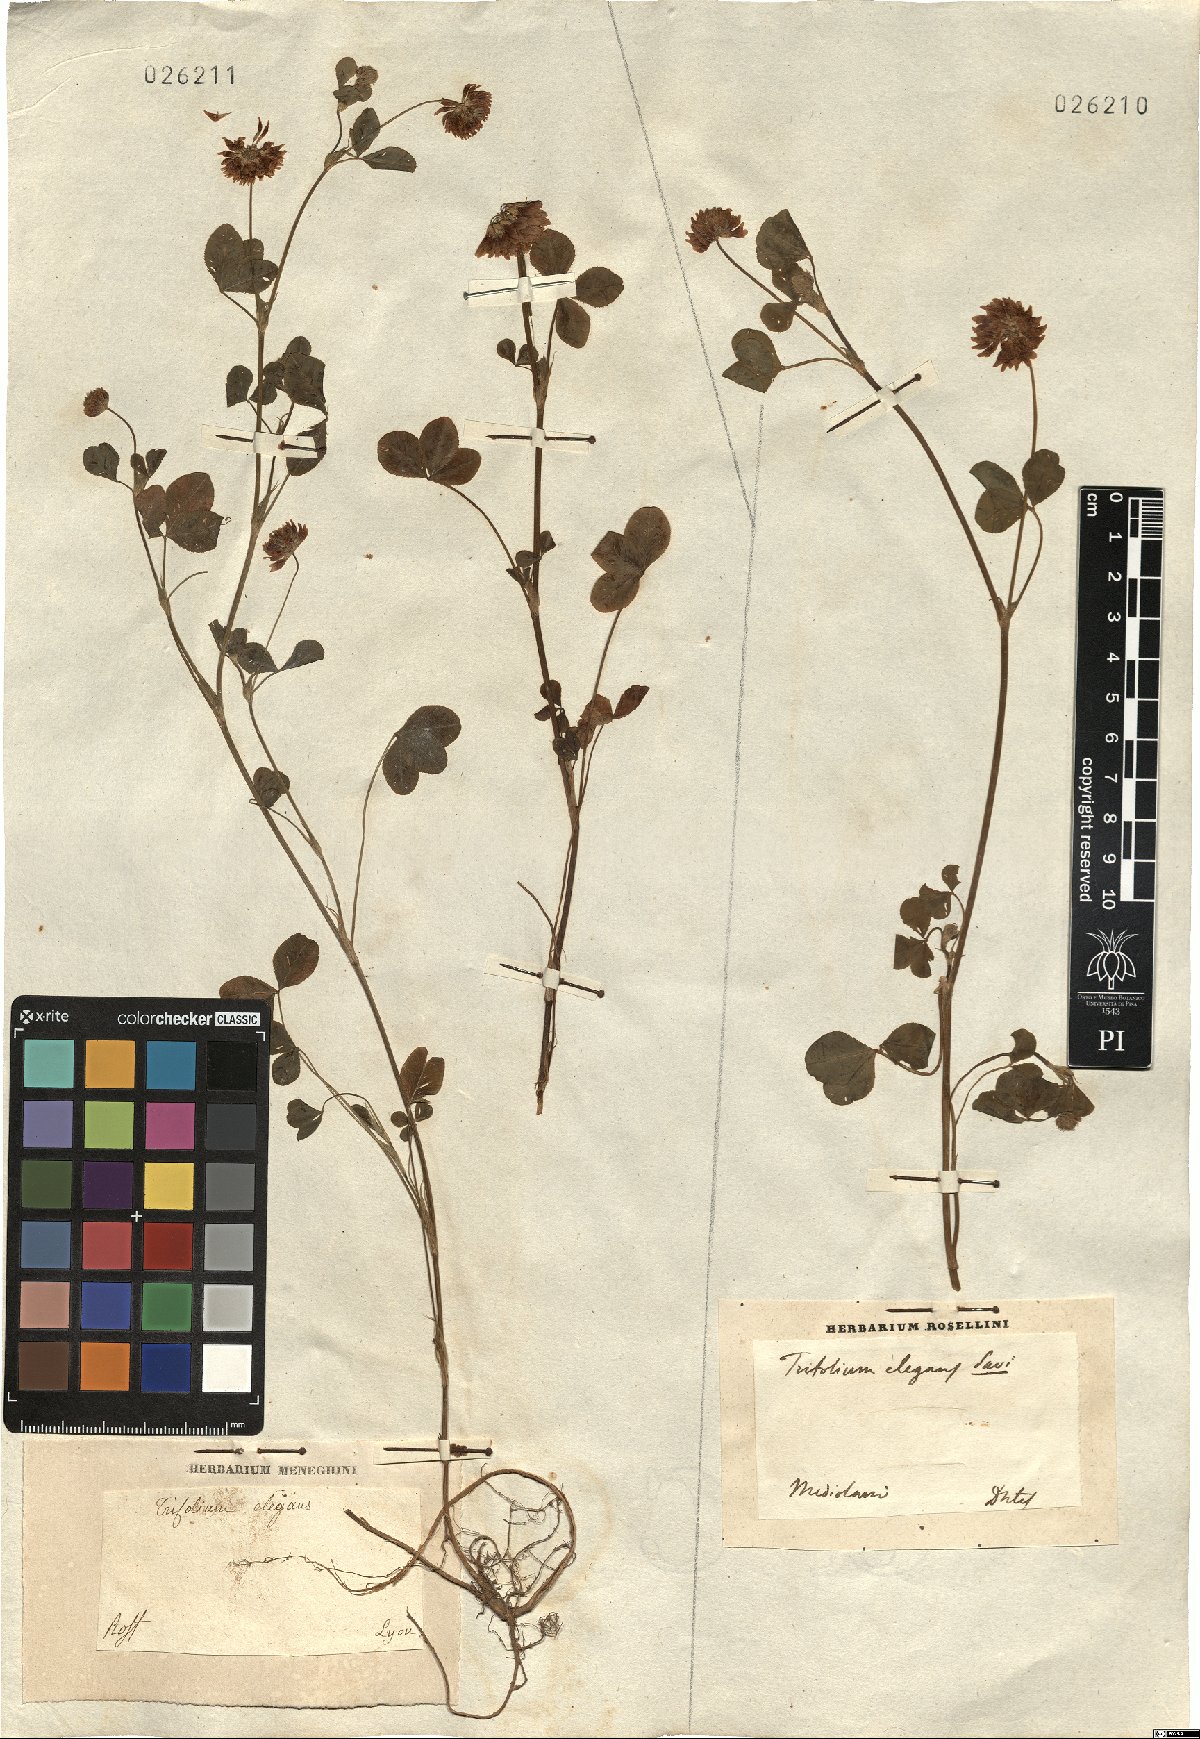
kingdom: Plantae
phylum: Tracheophyta
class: Magnoliopsida
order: Fabales
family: Fabaceae
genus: Trifolium
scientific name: Trifolium hybridum
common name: Alsike clover
